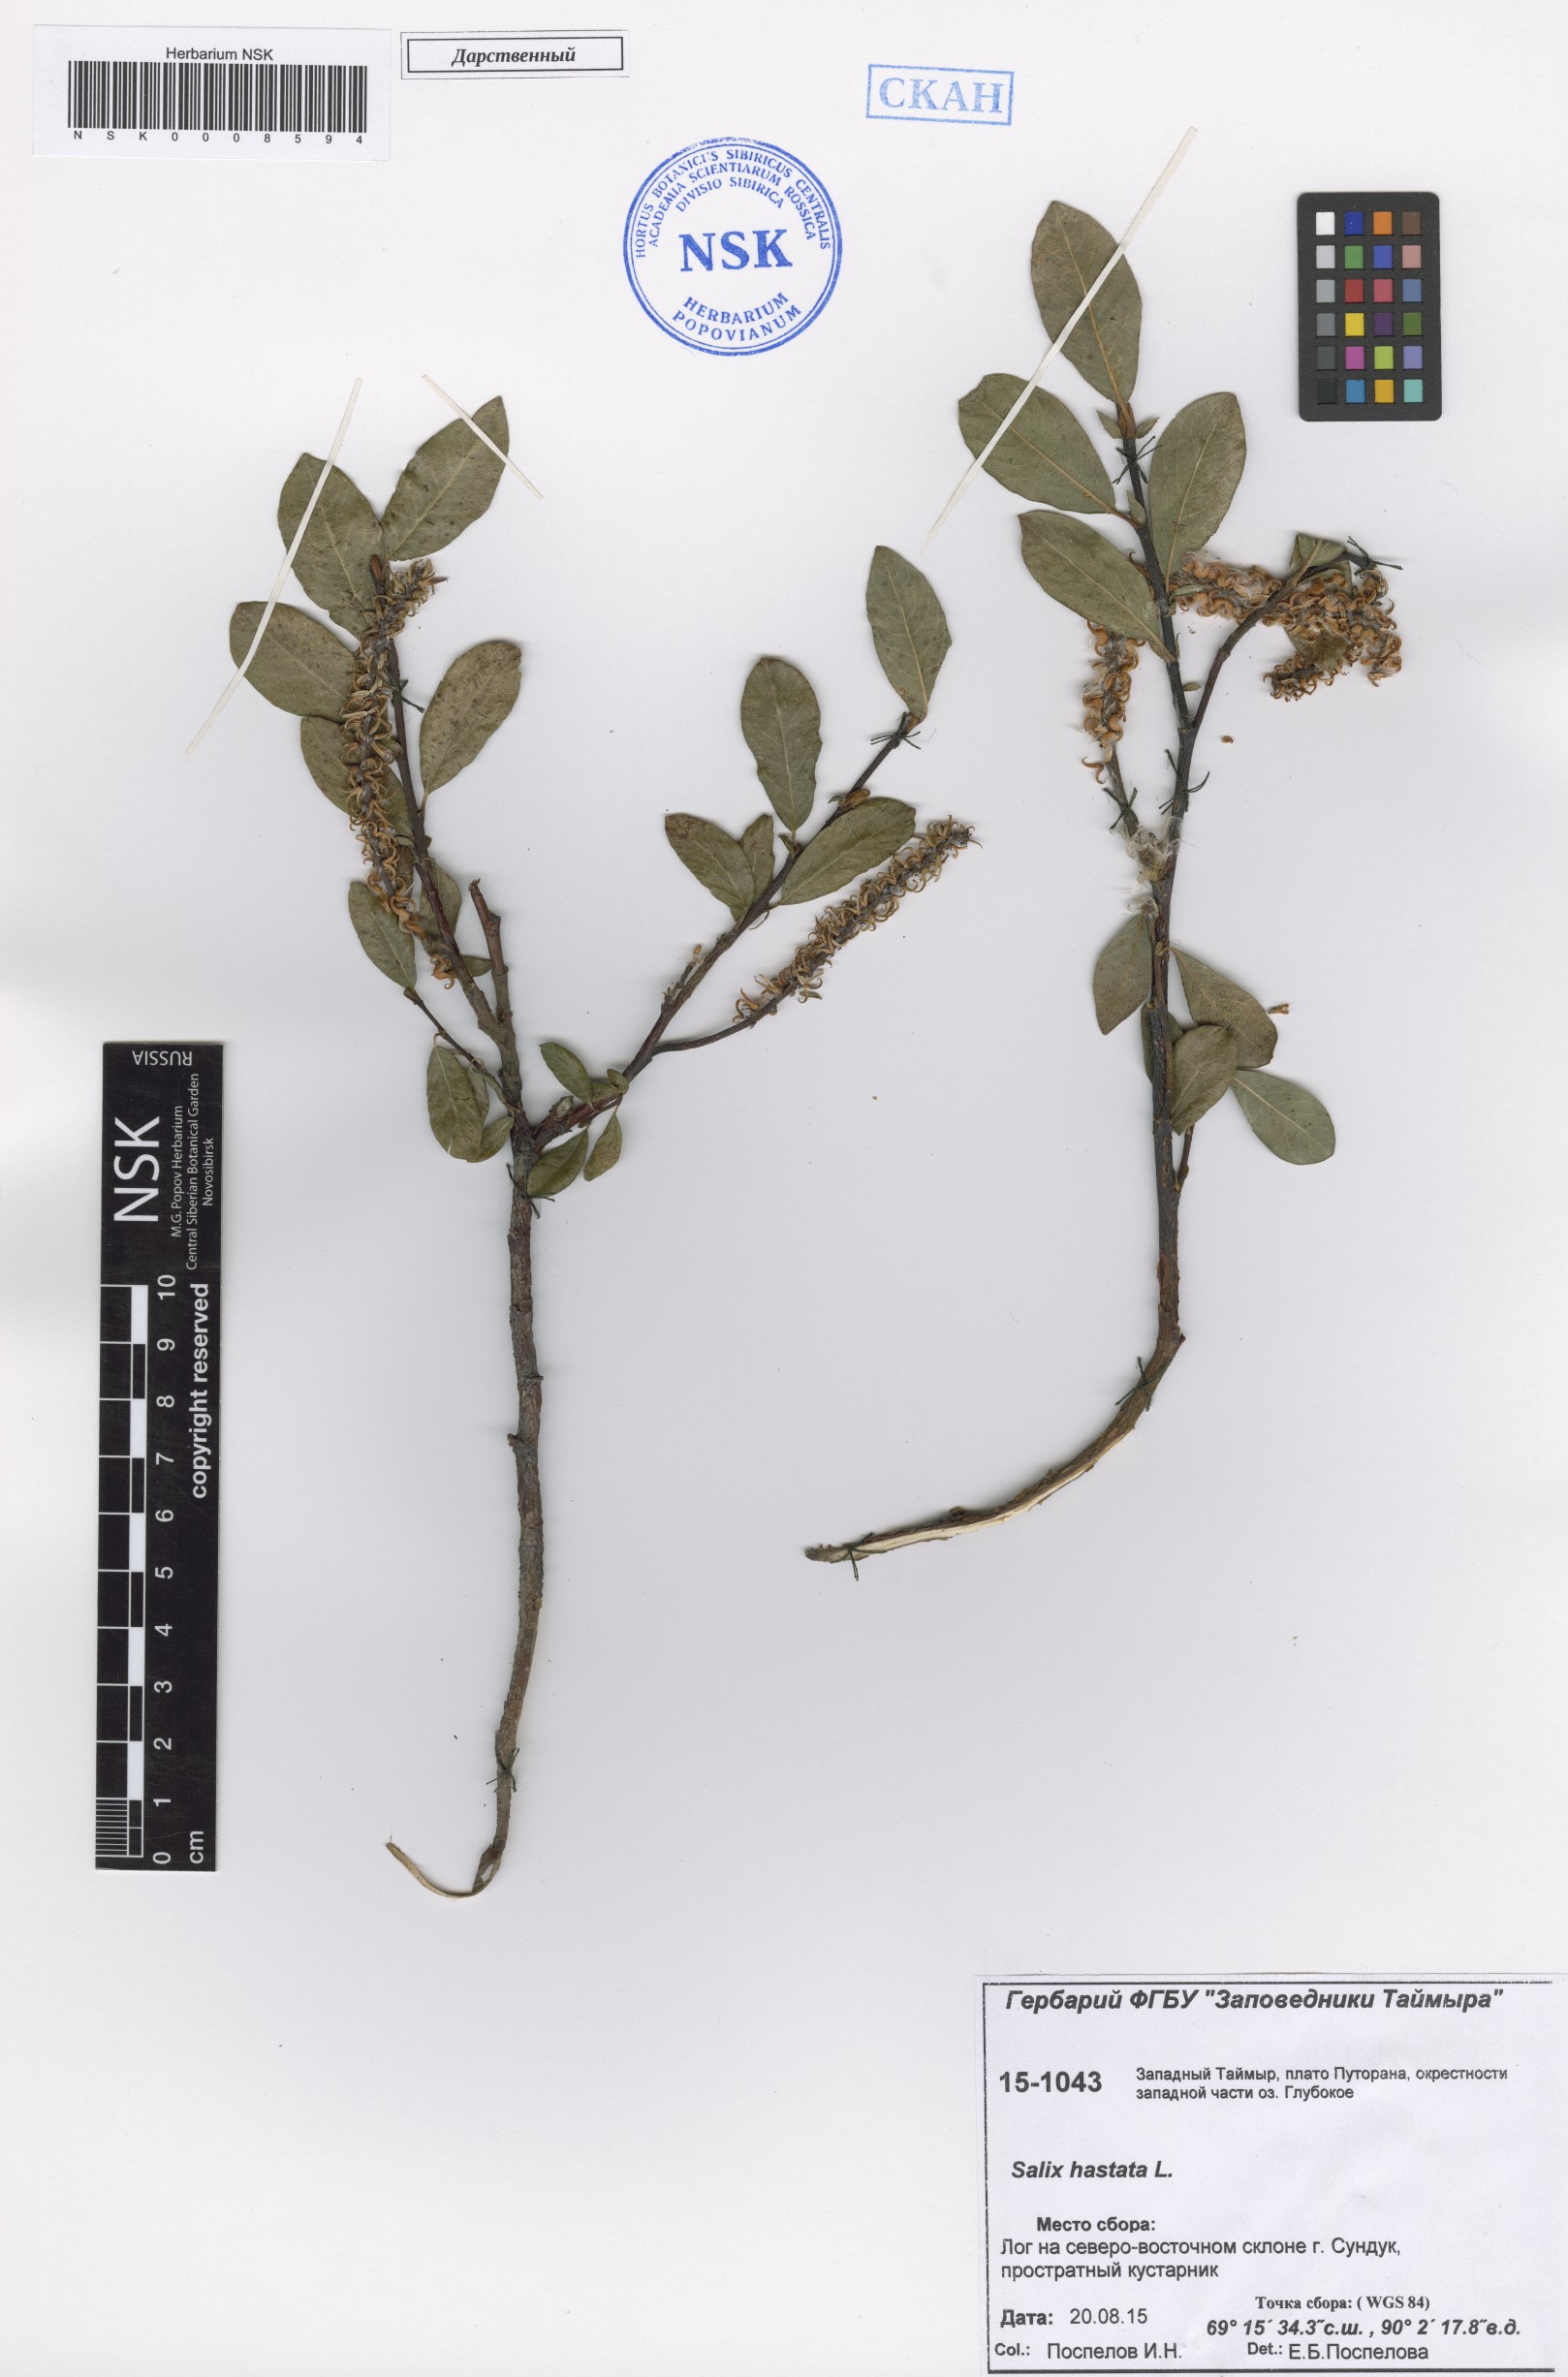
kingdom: Plantae
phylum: Tracheophyta
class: Magnoliopsida
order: Malpighiales
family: Salicaceae
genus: Salix
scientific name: Salix hastata
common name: Halberd willow
